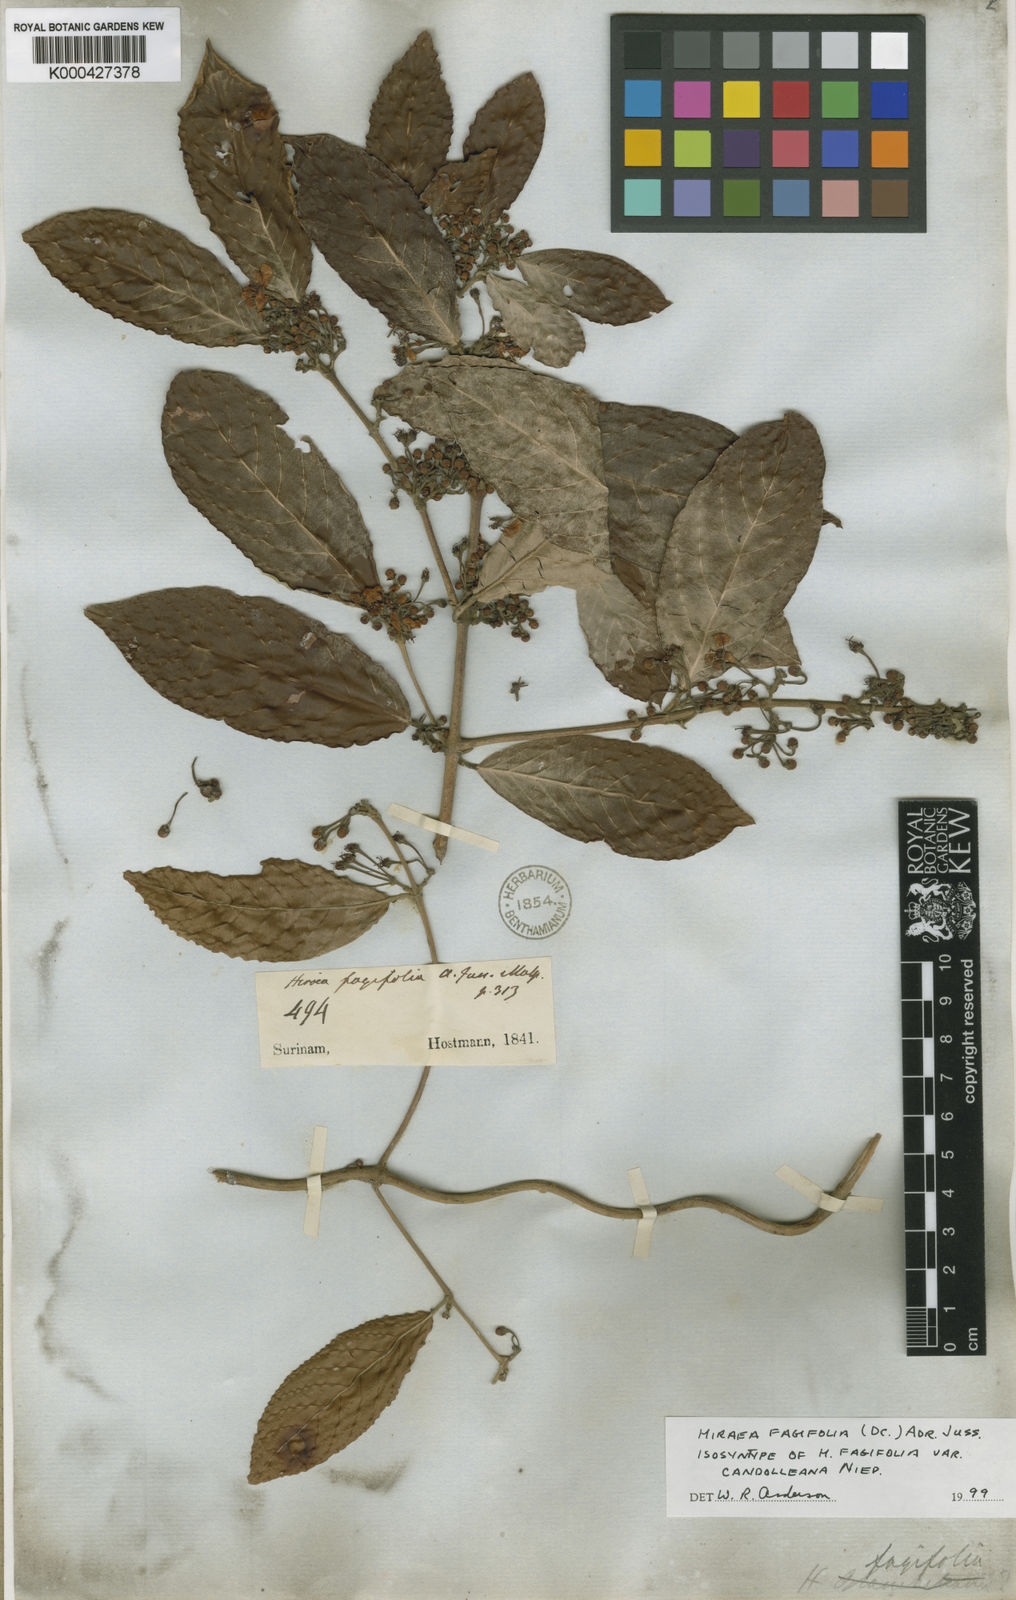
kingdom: Plantae
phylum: Tracheophyta
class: Magnoliopsida
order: Malpighiales
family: Malpighiaceae
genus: Hiraea
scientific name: Hiraea fagifolia
